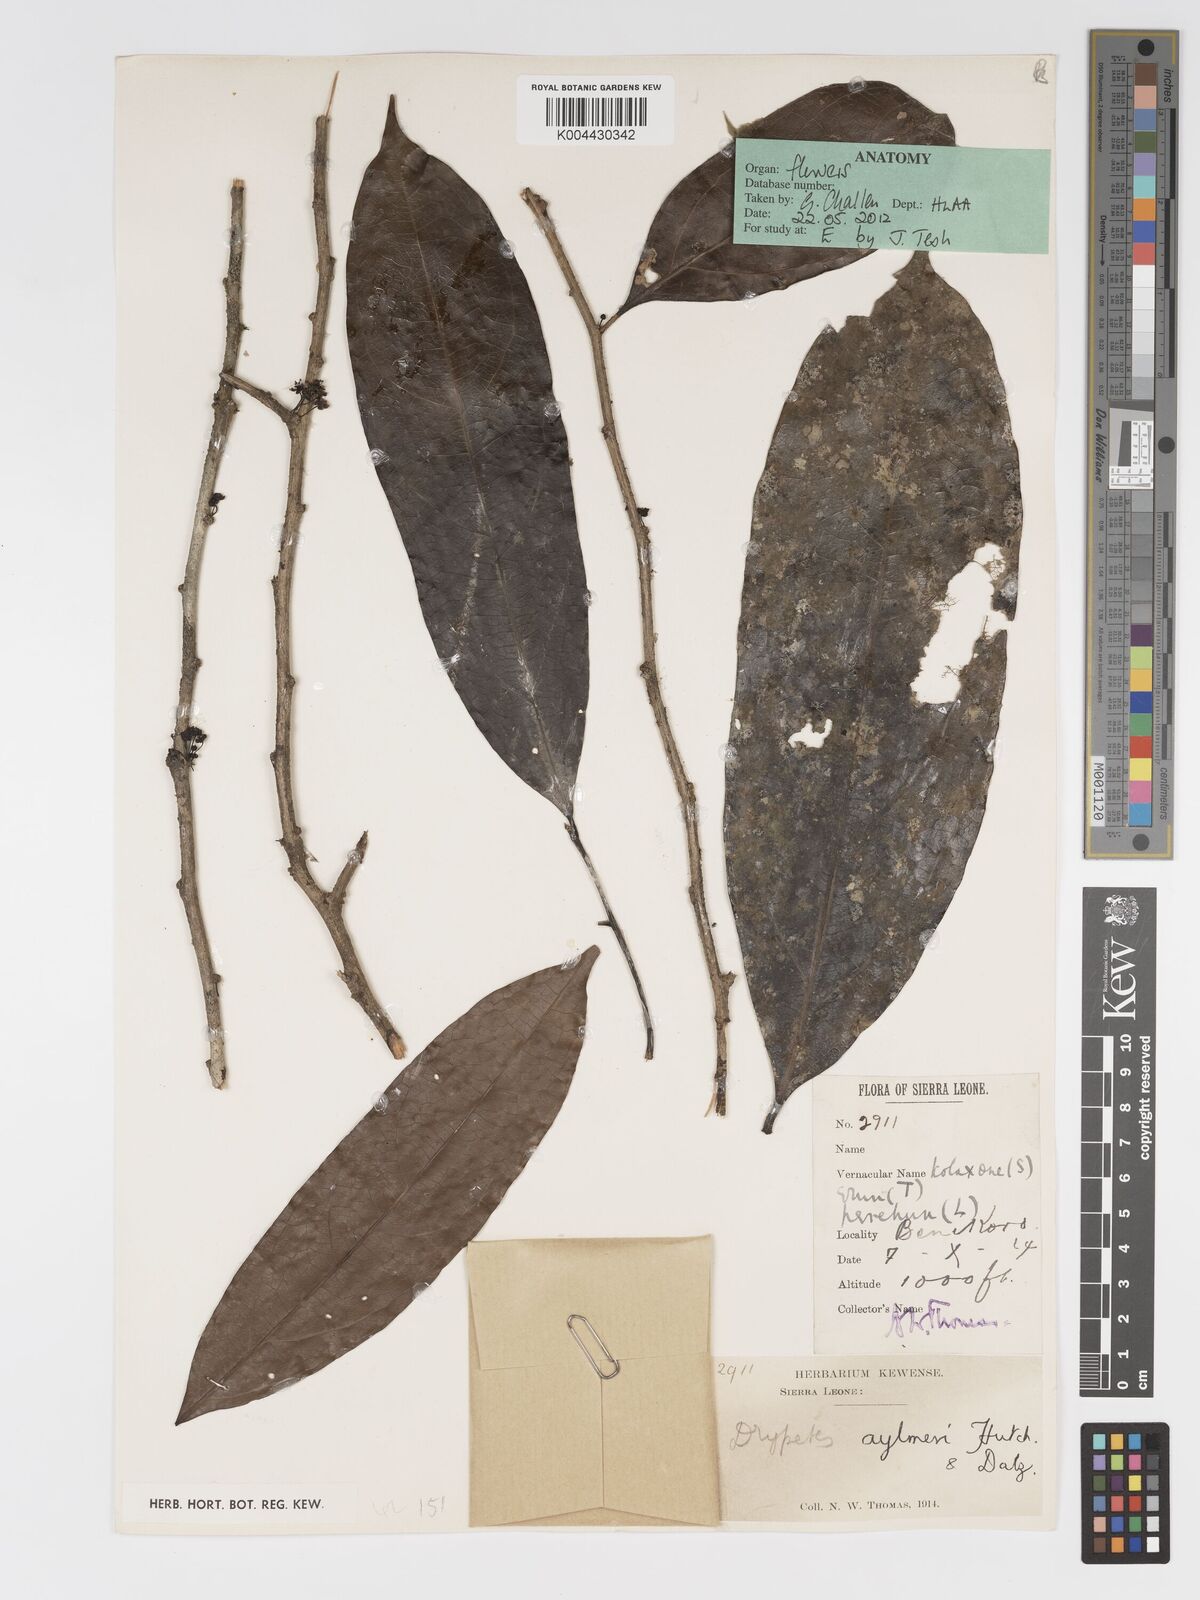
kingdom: Plantae
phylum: Tracheophyta
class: Magnoliopsida
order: Malpighiales
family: Putranjivaceae
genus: Drypetes
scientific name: Drypetes aylmeri
